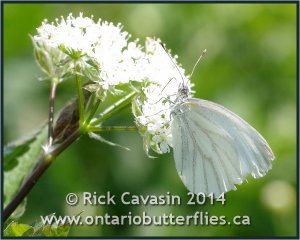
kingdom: Animalia
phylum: Arthropoda
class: Insecta
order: Lepidoptera
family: Pieridae
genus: Pieris
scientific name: Pieris oleracea
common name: Mustard White
